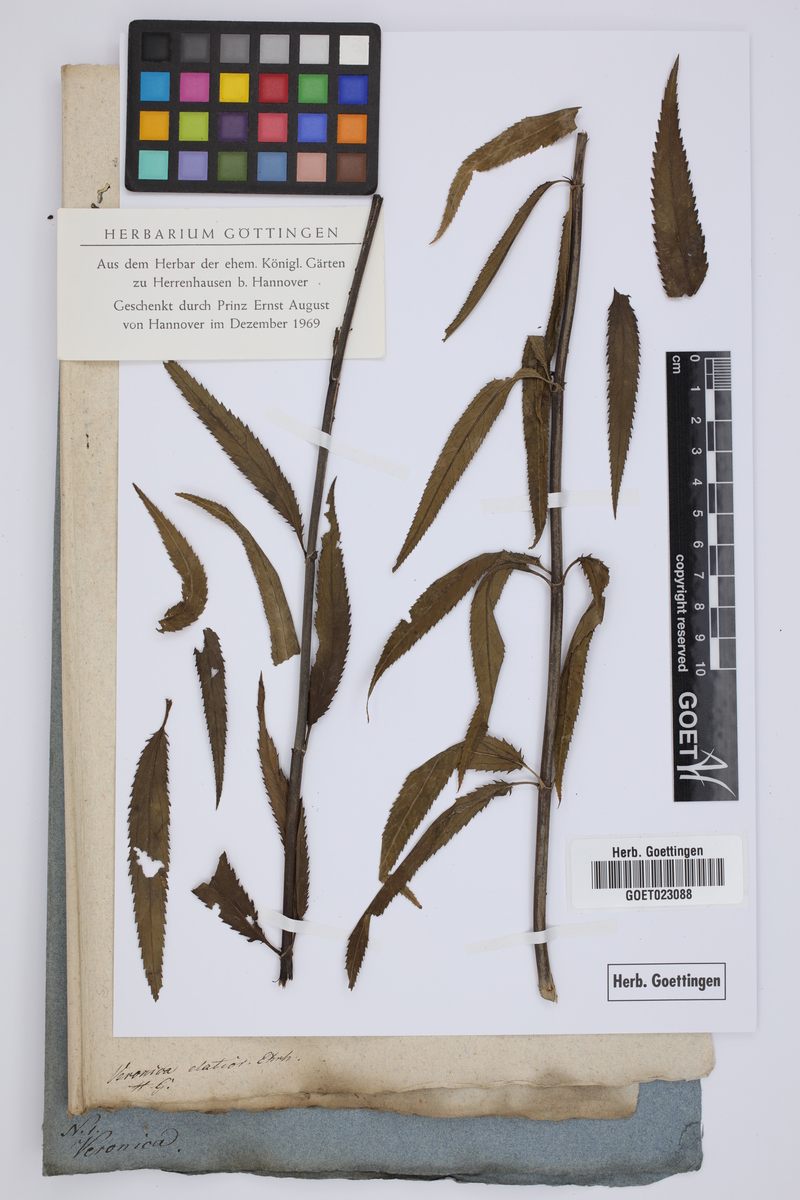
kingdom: Plantae
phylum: Tracheophyta
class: Magnoliopsida
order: Lamiales
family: Plantaginaceae
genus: Veronica
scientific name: Veronica maritima
